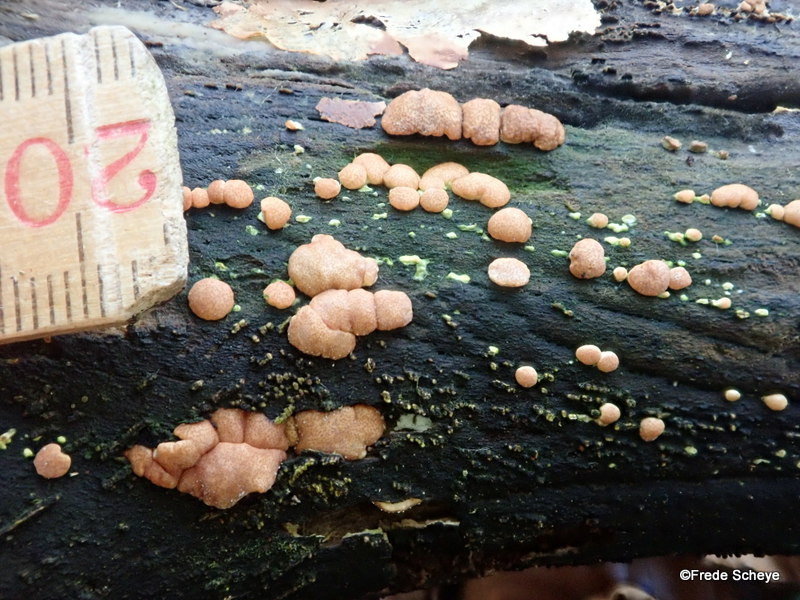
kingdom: Fungi
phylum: Ascomycota
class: Sordariomycetes
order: Hypocreales
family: Hypocreaceae
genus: Trichoderma
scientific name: Trichoderma europaeum
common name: rosabrun kødkerne
